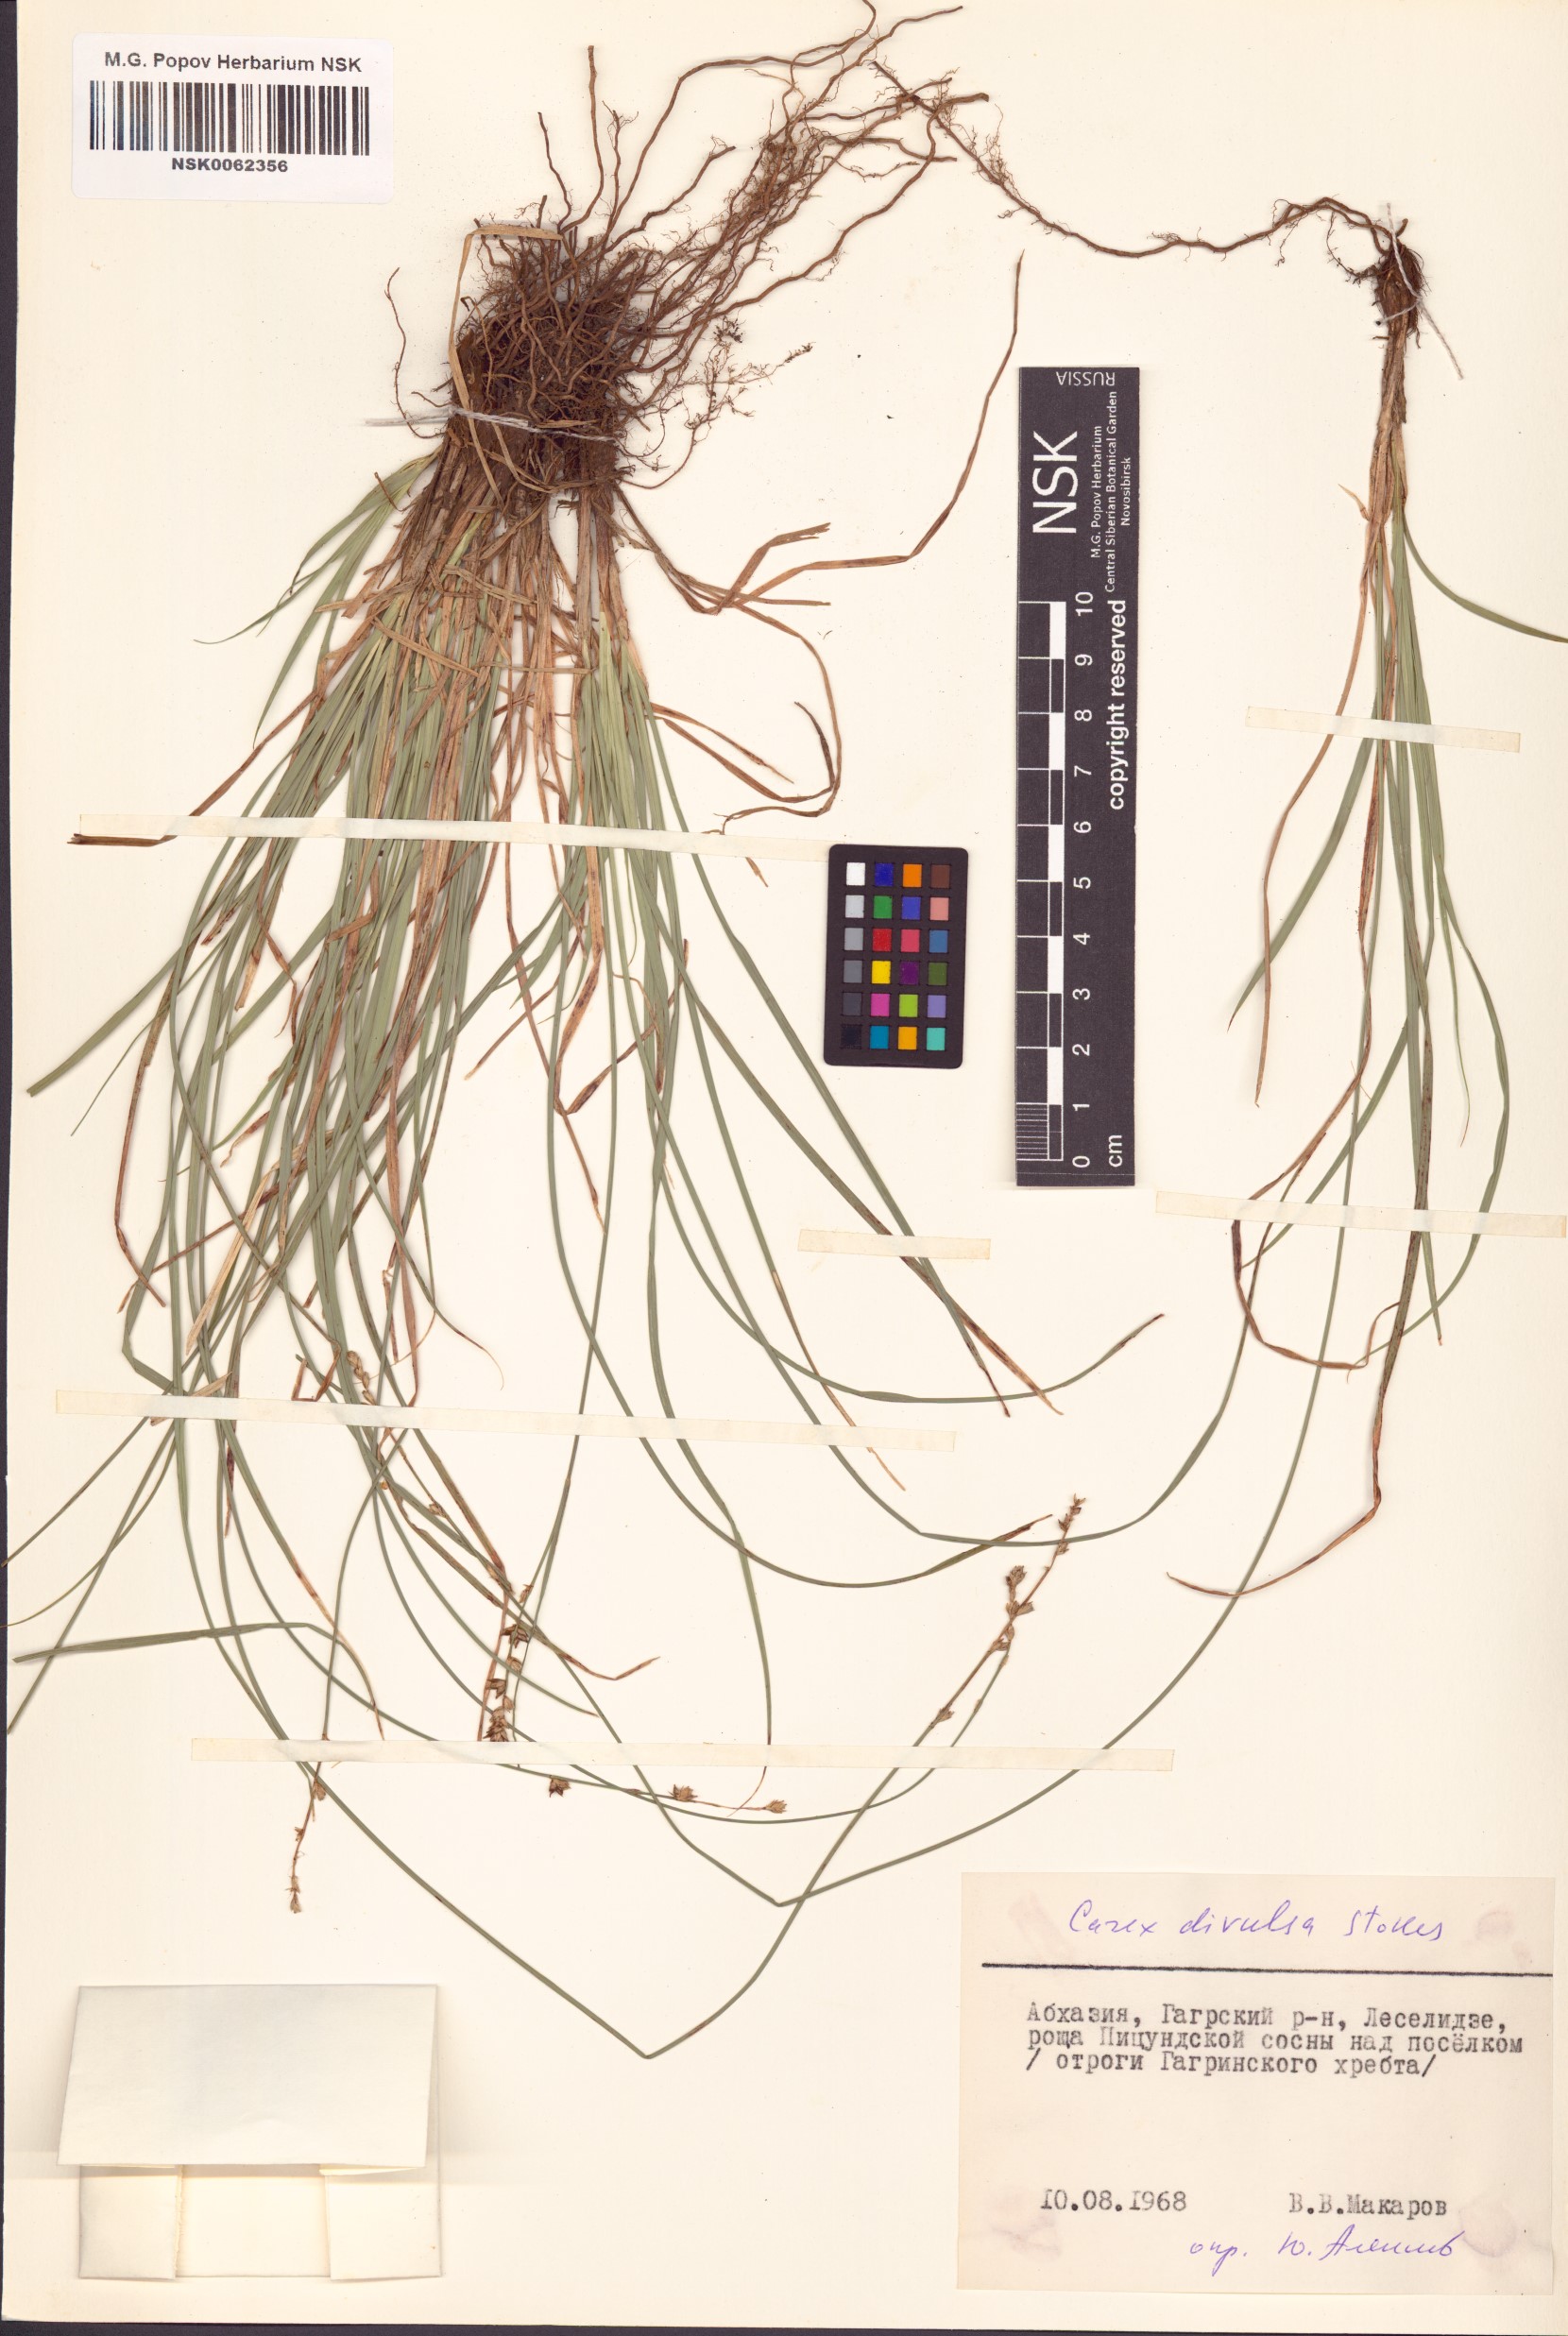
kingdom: Plantae
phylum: Tracheophyta
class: Liliopsida
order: Poales
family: Cyperaceae
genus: Carex
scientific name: Carex divulsa
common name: Grassland sedge
